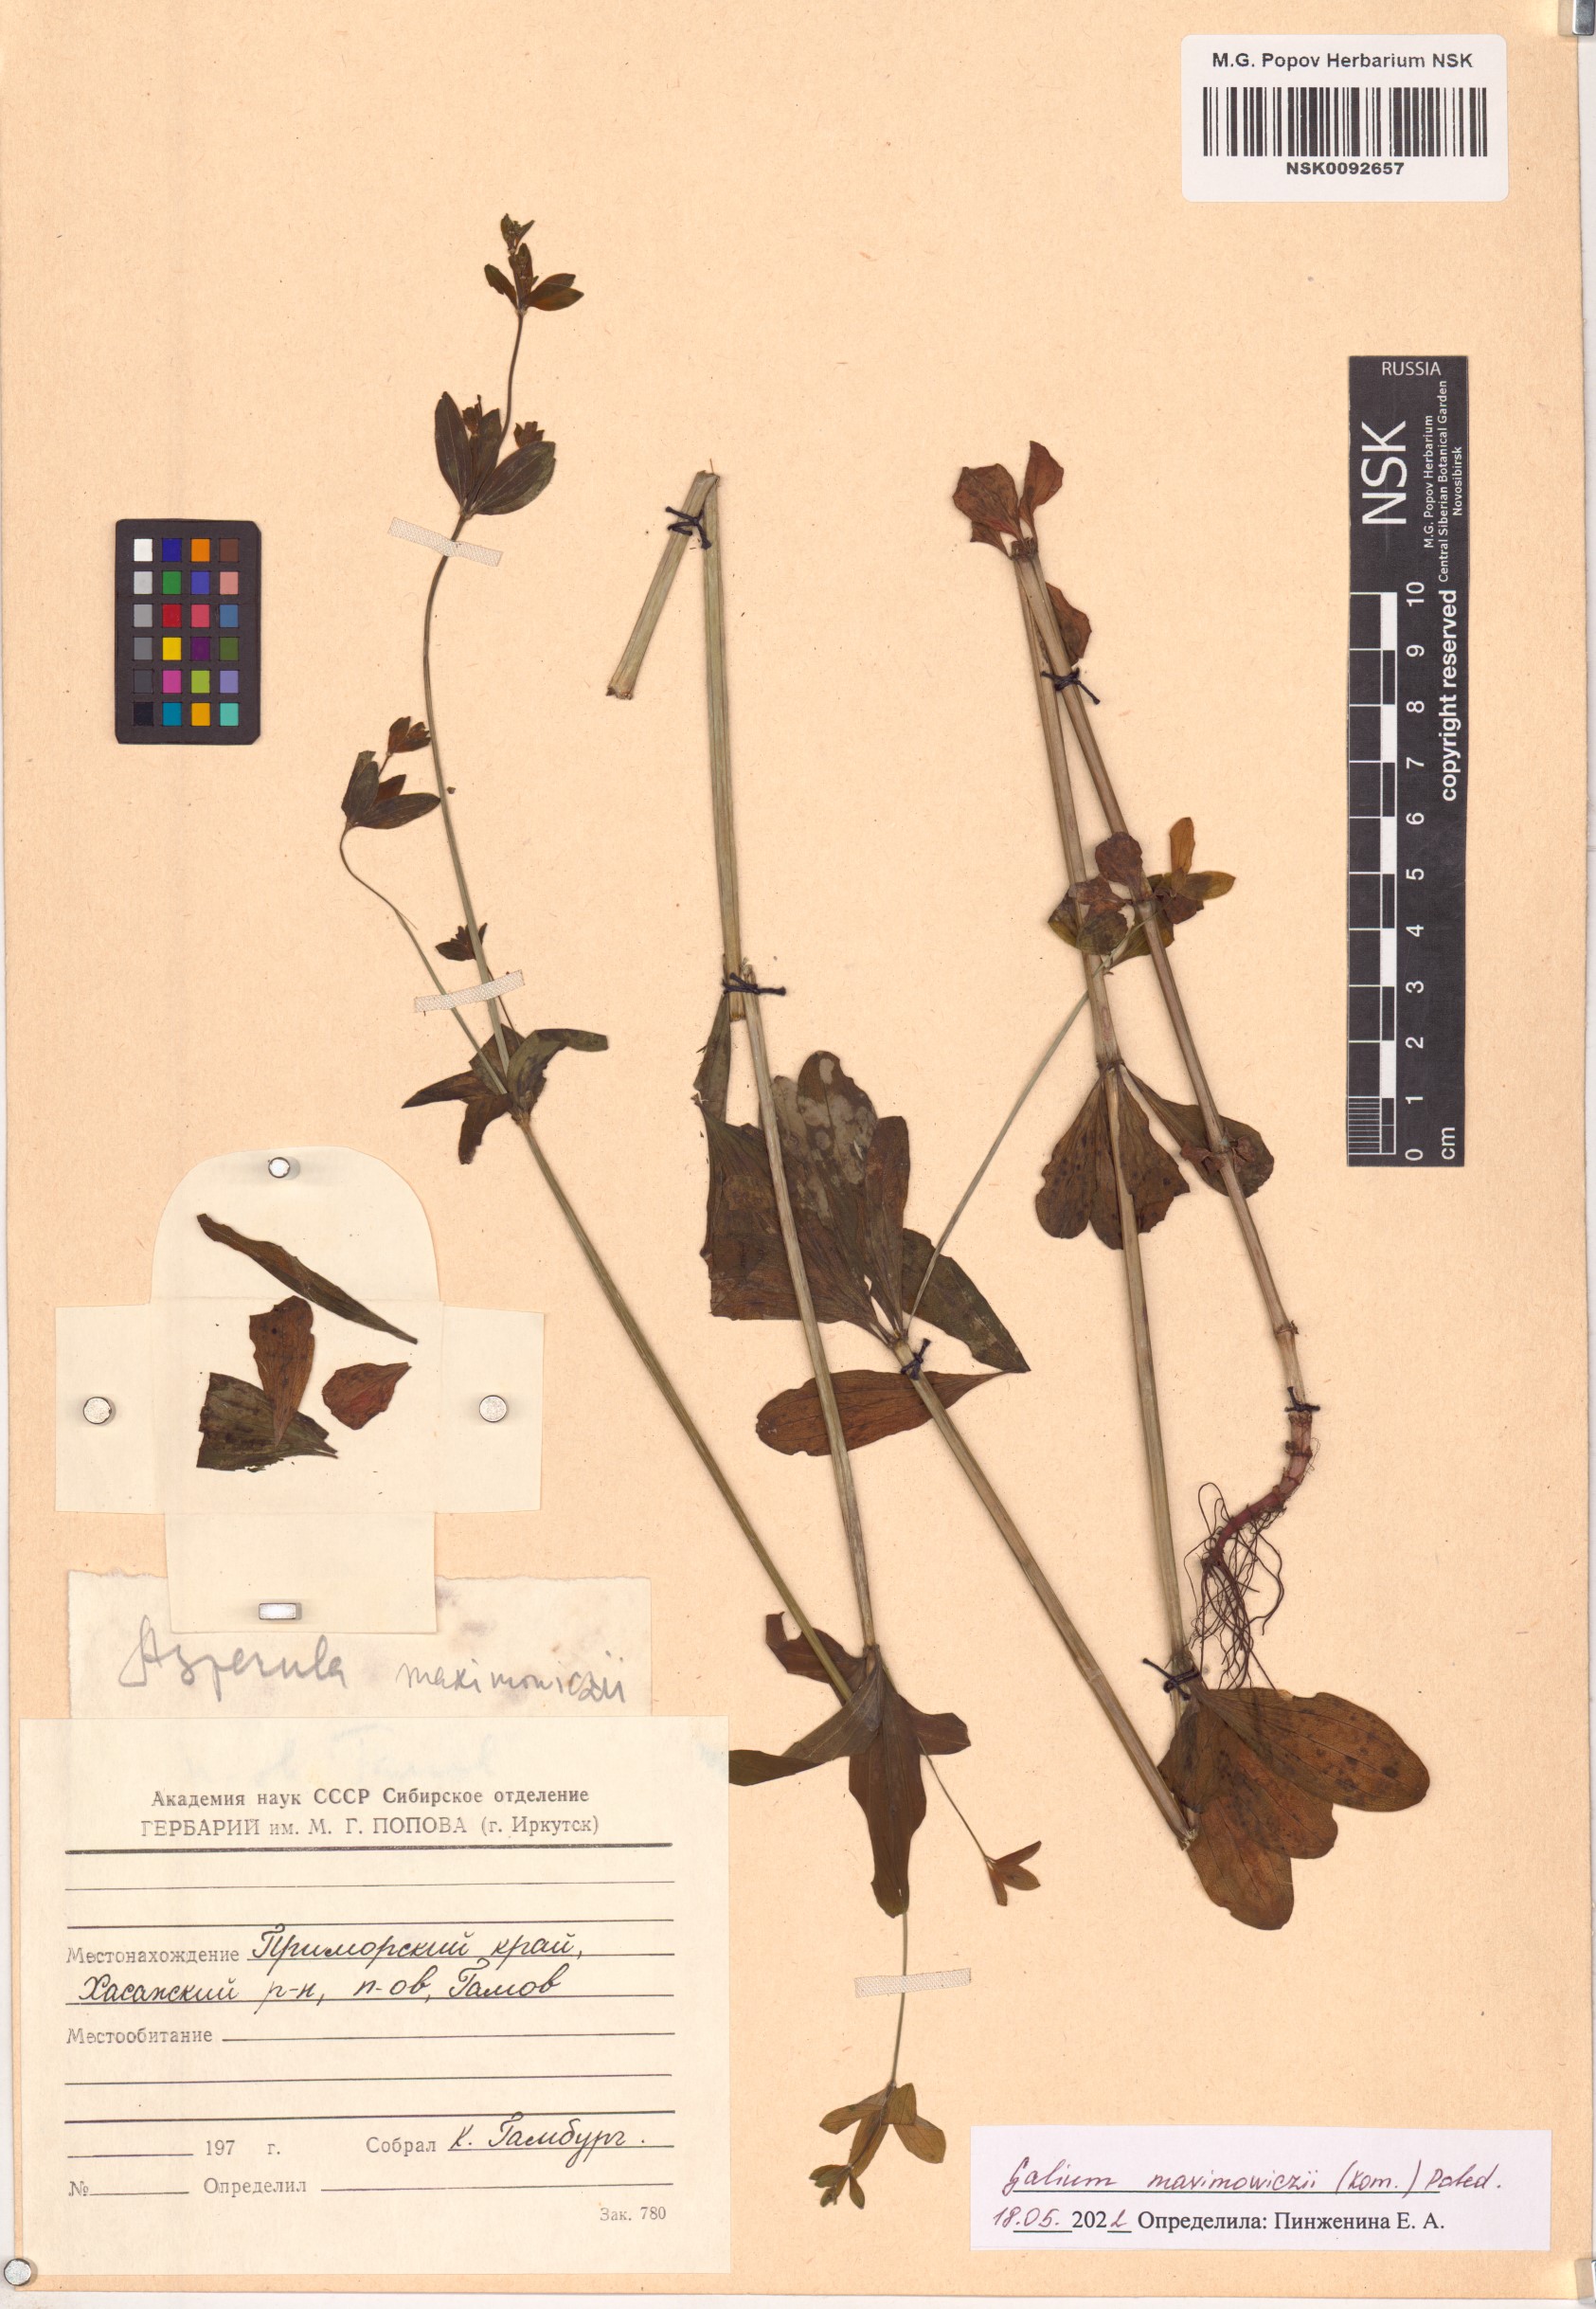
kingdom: Plantae
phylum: Tracheophyta
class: Magnoliopsida
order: Gentianales
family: Rubiaceae
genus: Galium
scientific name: Galium maximoviczii
